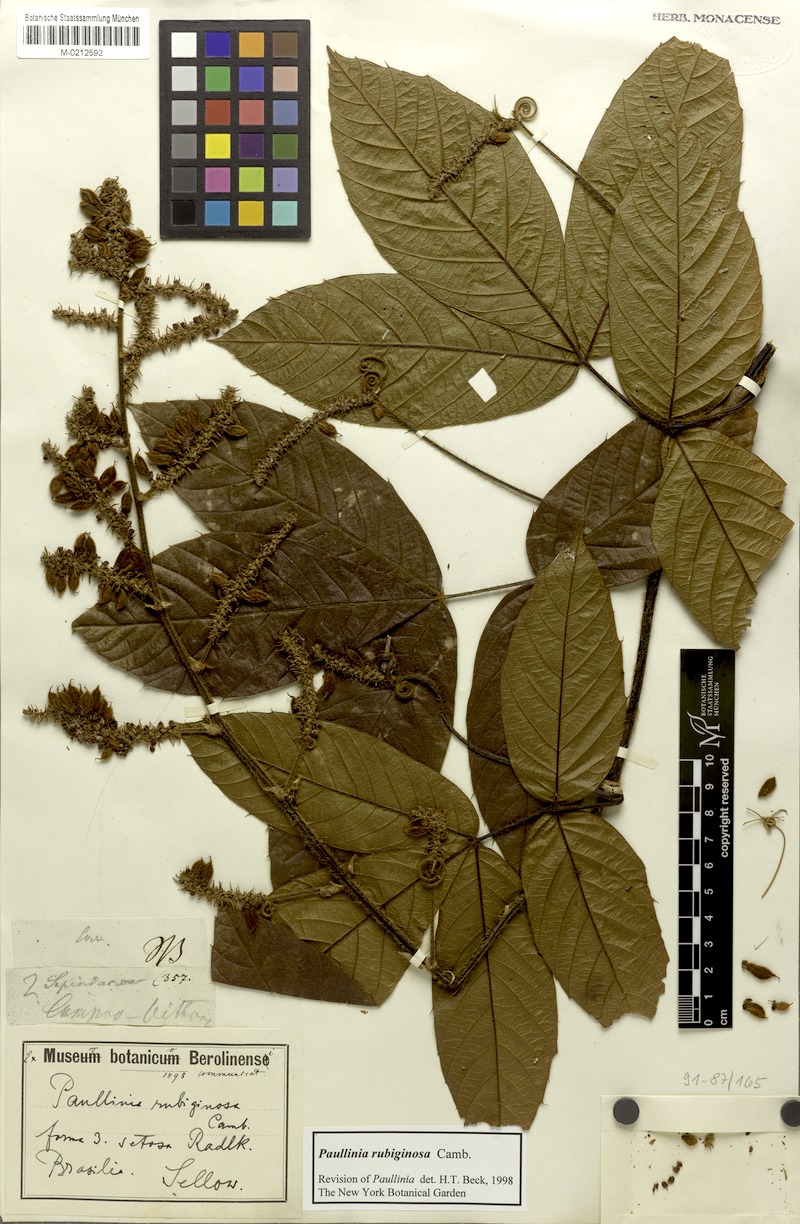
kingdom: Plantae
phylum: Tracheophyta
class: Magnoliopsida
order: Sapindales
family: Sapindaceae
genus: Paullinia
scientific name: Paullinia rubiginosa
